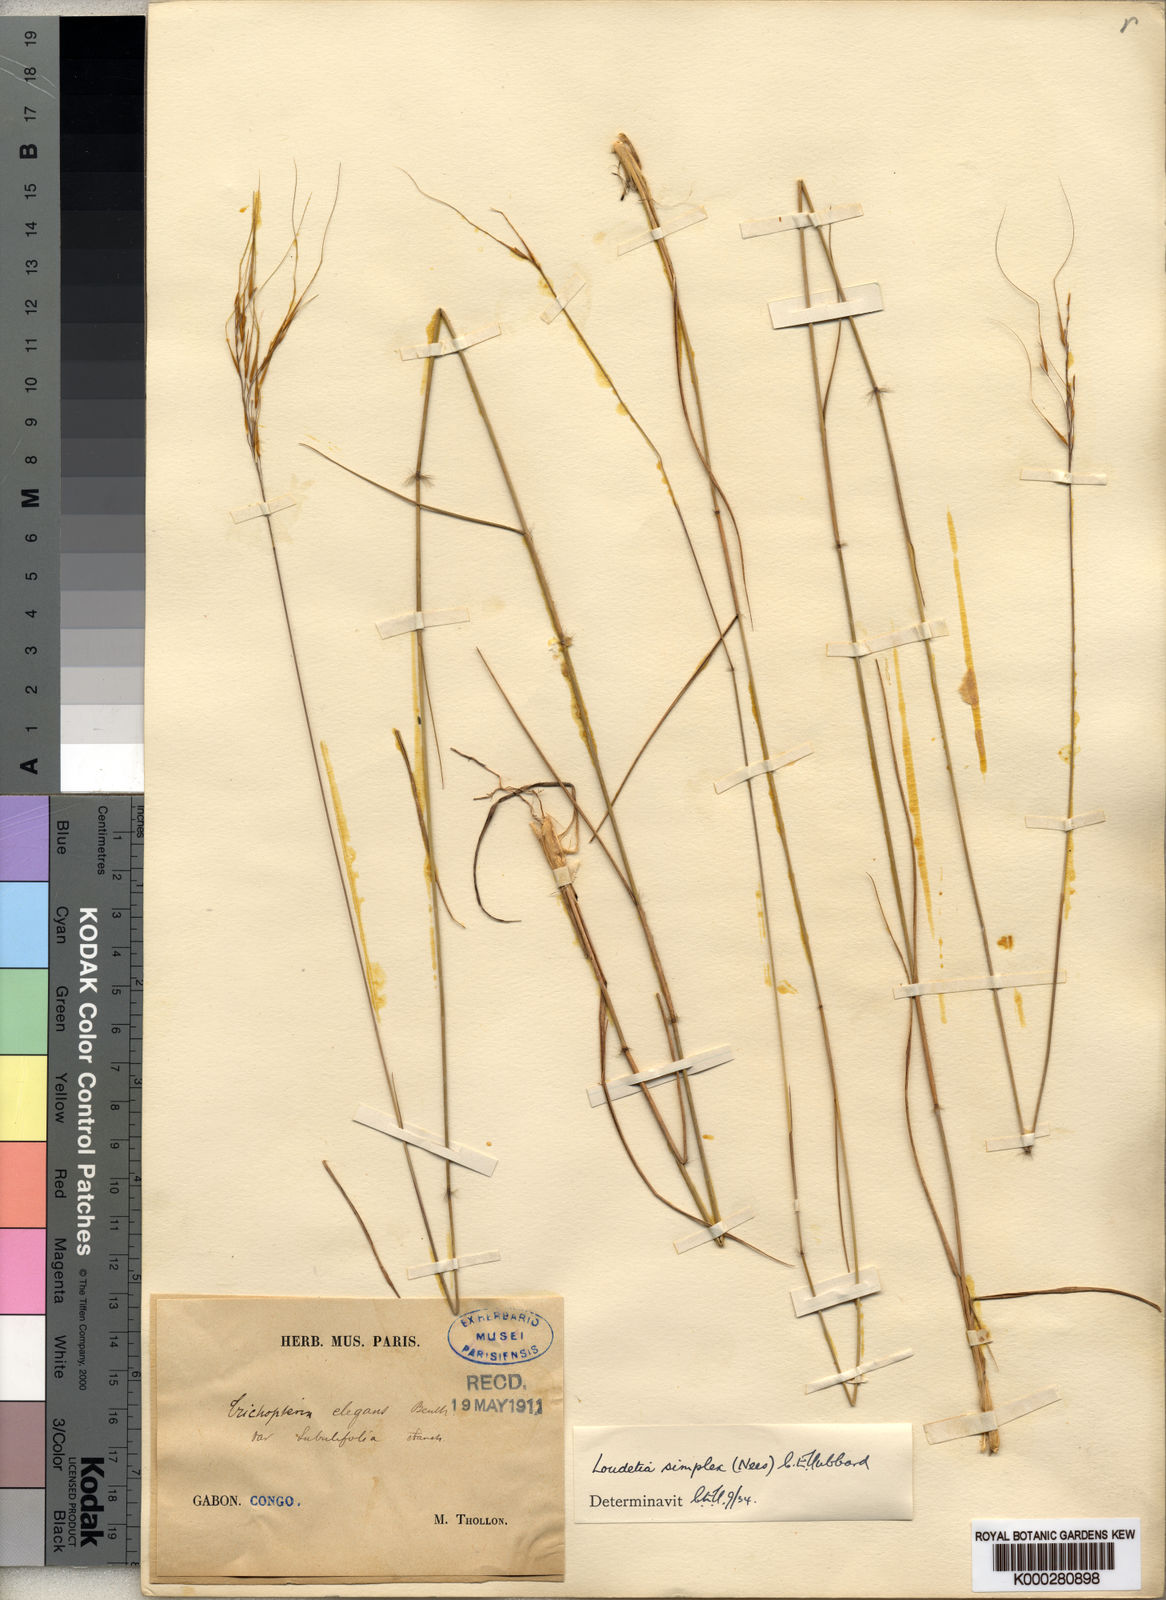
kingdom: Plantae
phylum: Tracheophyta
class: Liliopsida
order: Poales
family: Poaceae
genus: Loudetia
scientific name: Loudetia simplex
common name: Common russet grass
